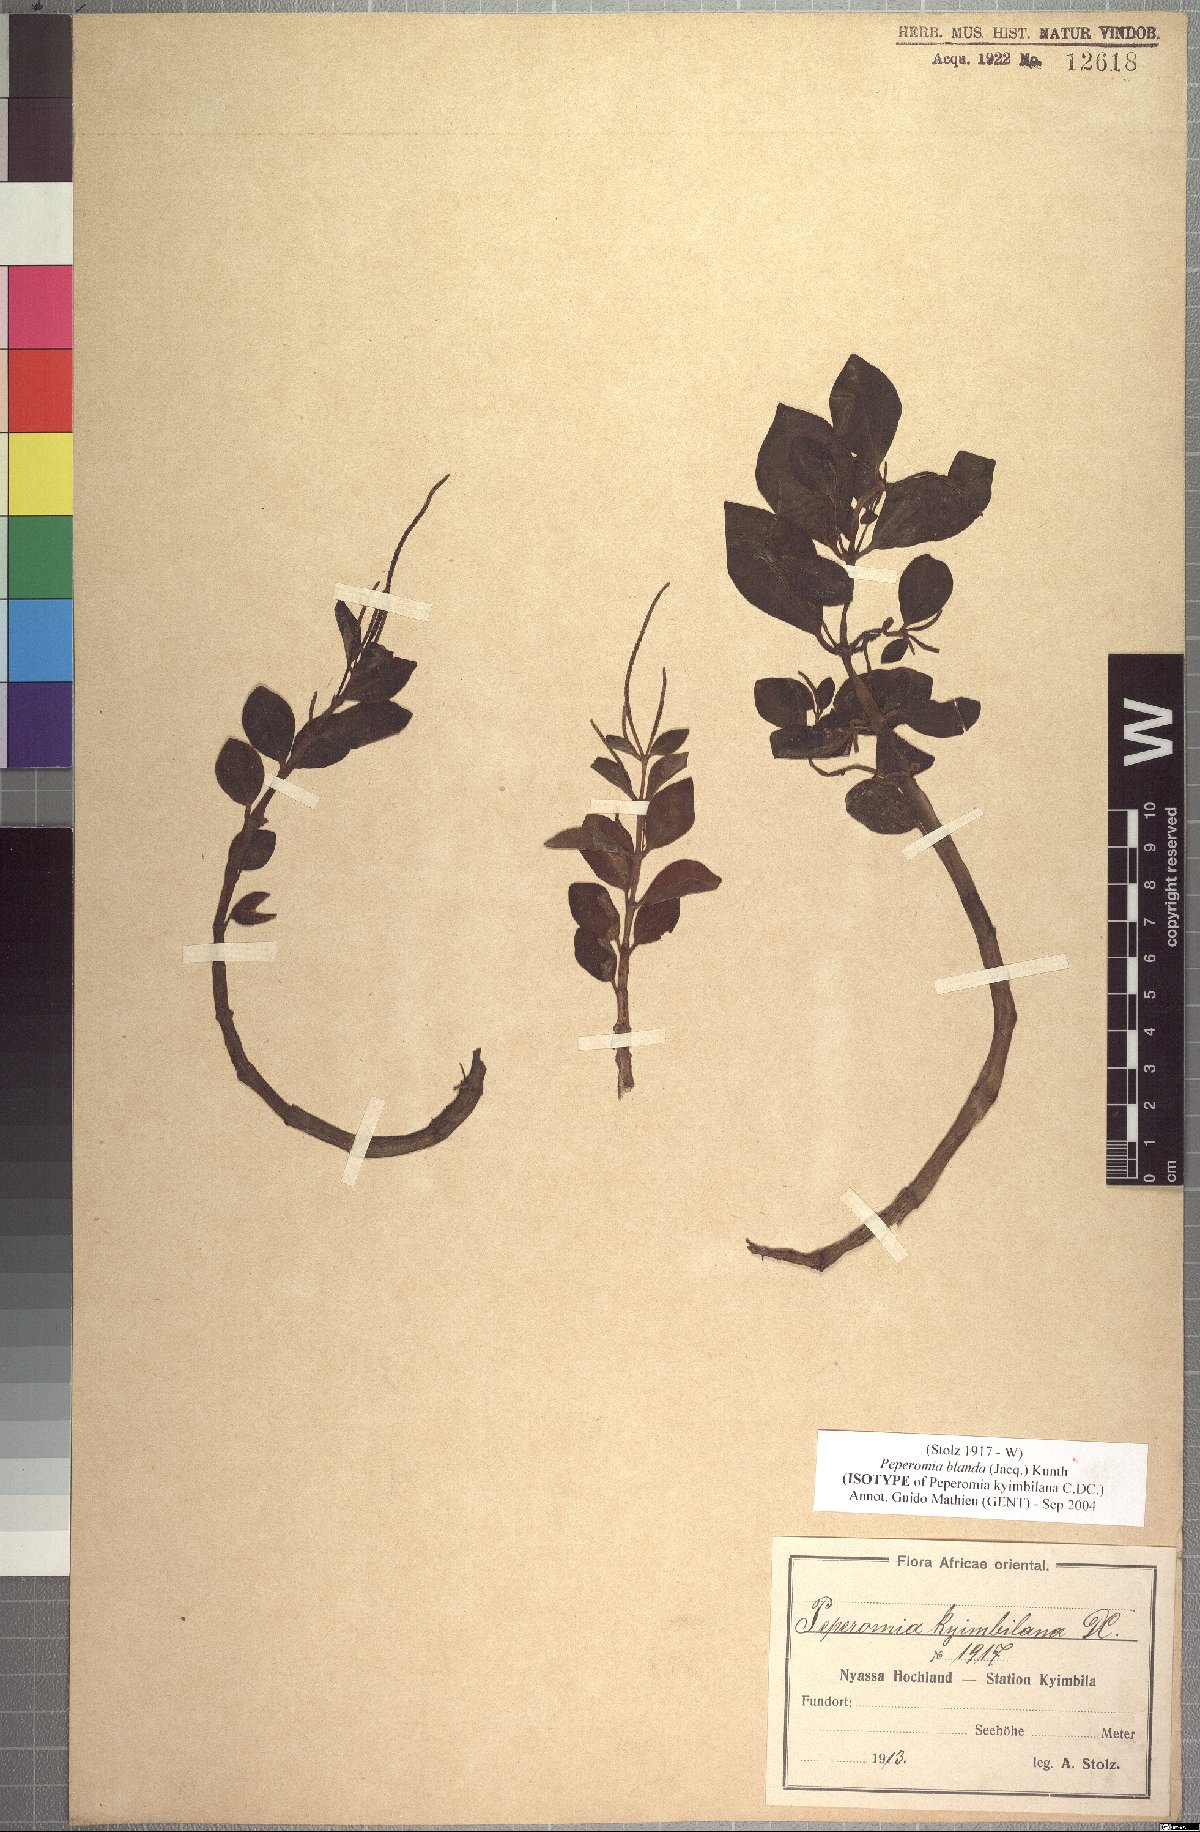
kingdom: Plantae
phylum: Tracheophyta
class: Magnoliopsida
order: Piperales
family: Piperaceae
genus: Peperomia
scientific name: Peperomia blanda
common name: Arid-land peperomia
